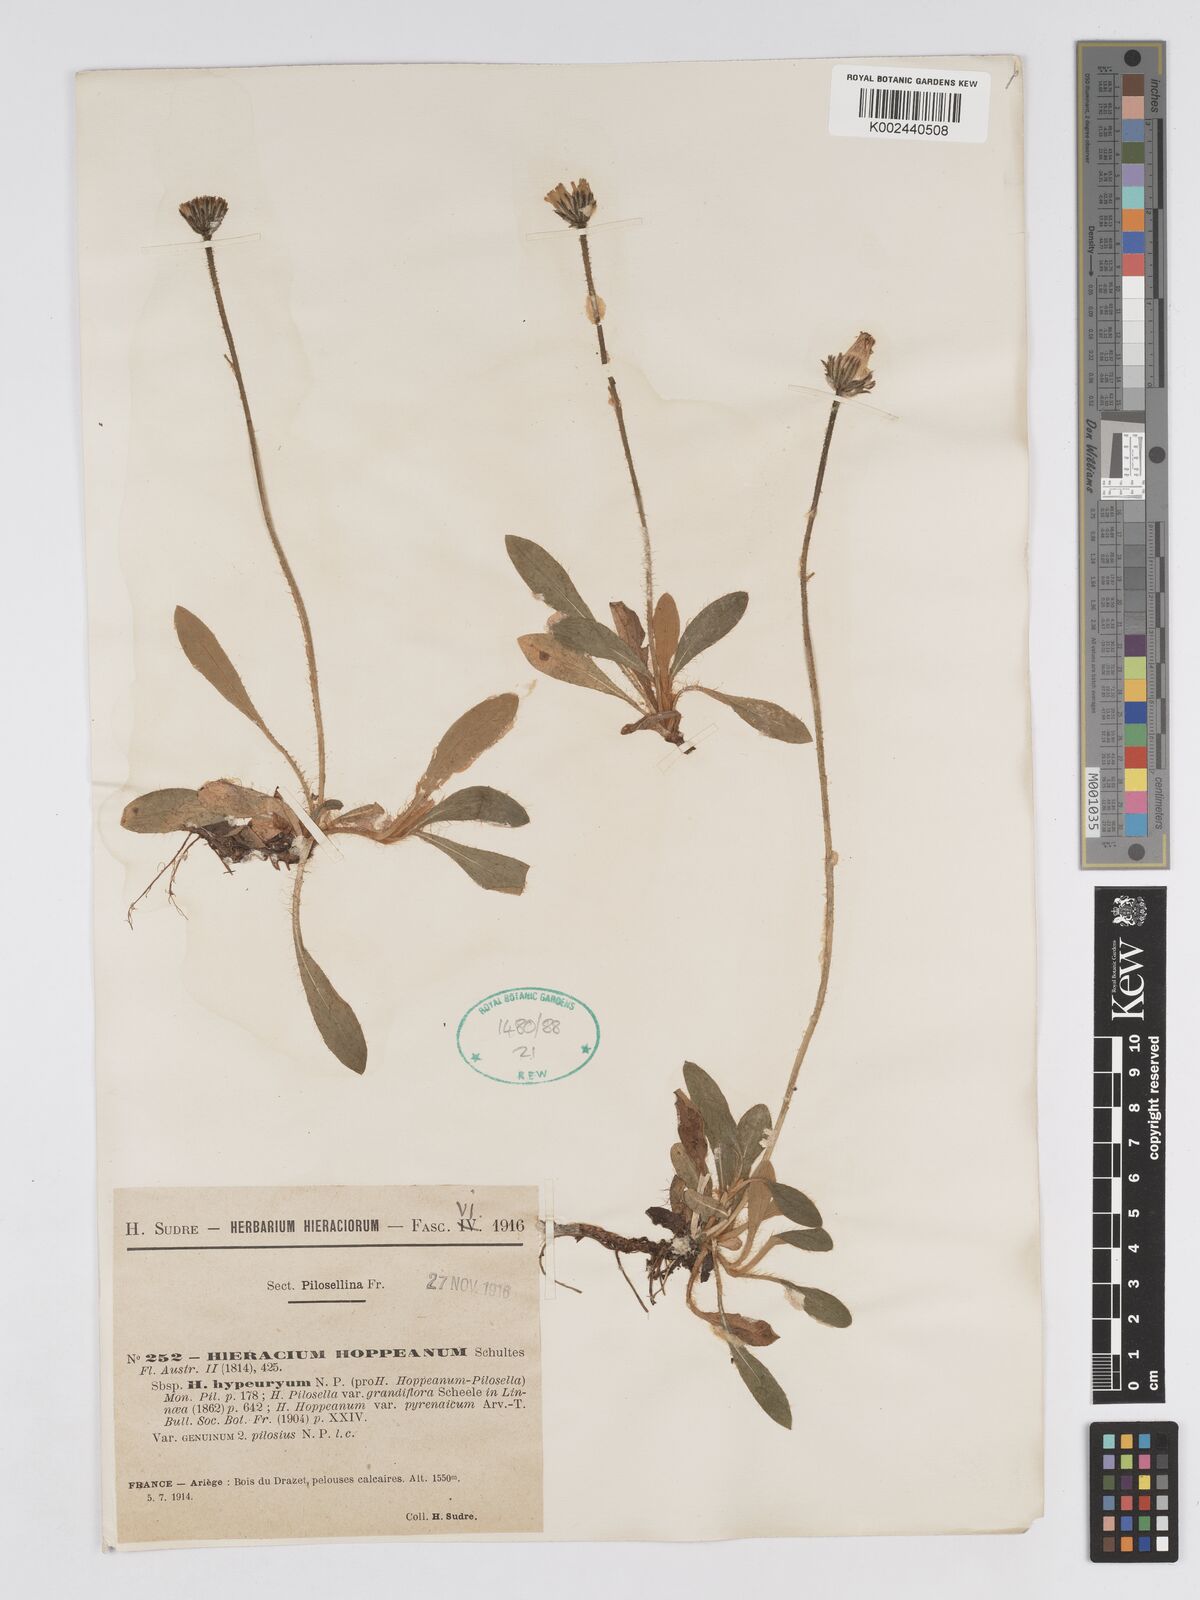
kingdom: Plantae
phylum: Tracheophyta
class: Magnoliopsida
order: Asterales
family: Asteraceae
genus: Pilosella
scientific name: Pilosella hypeurya
